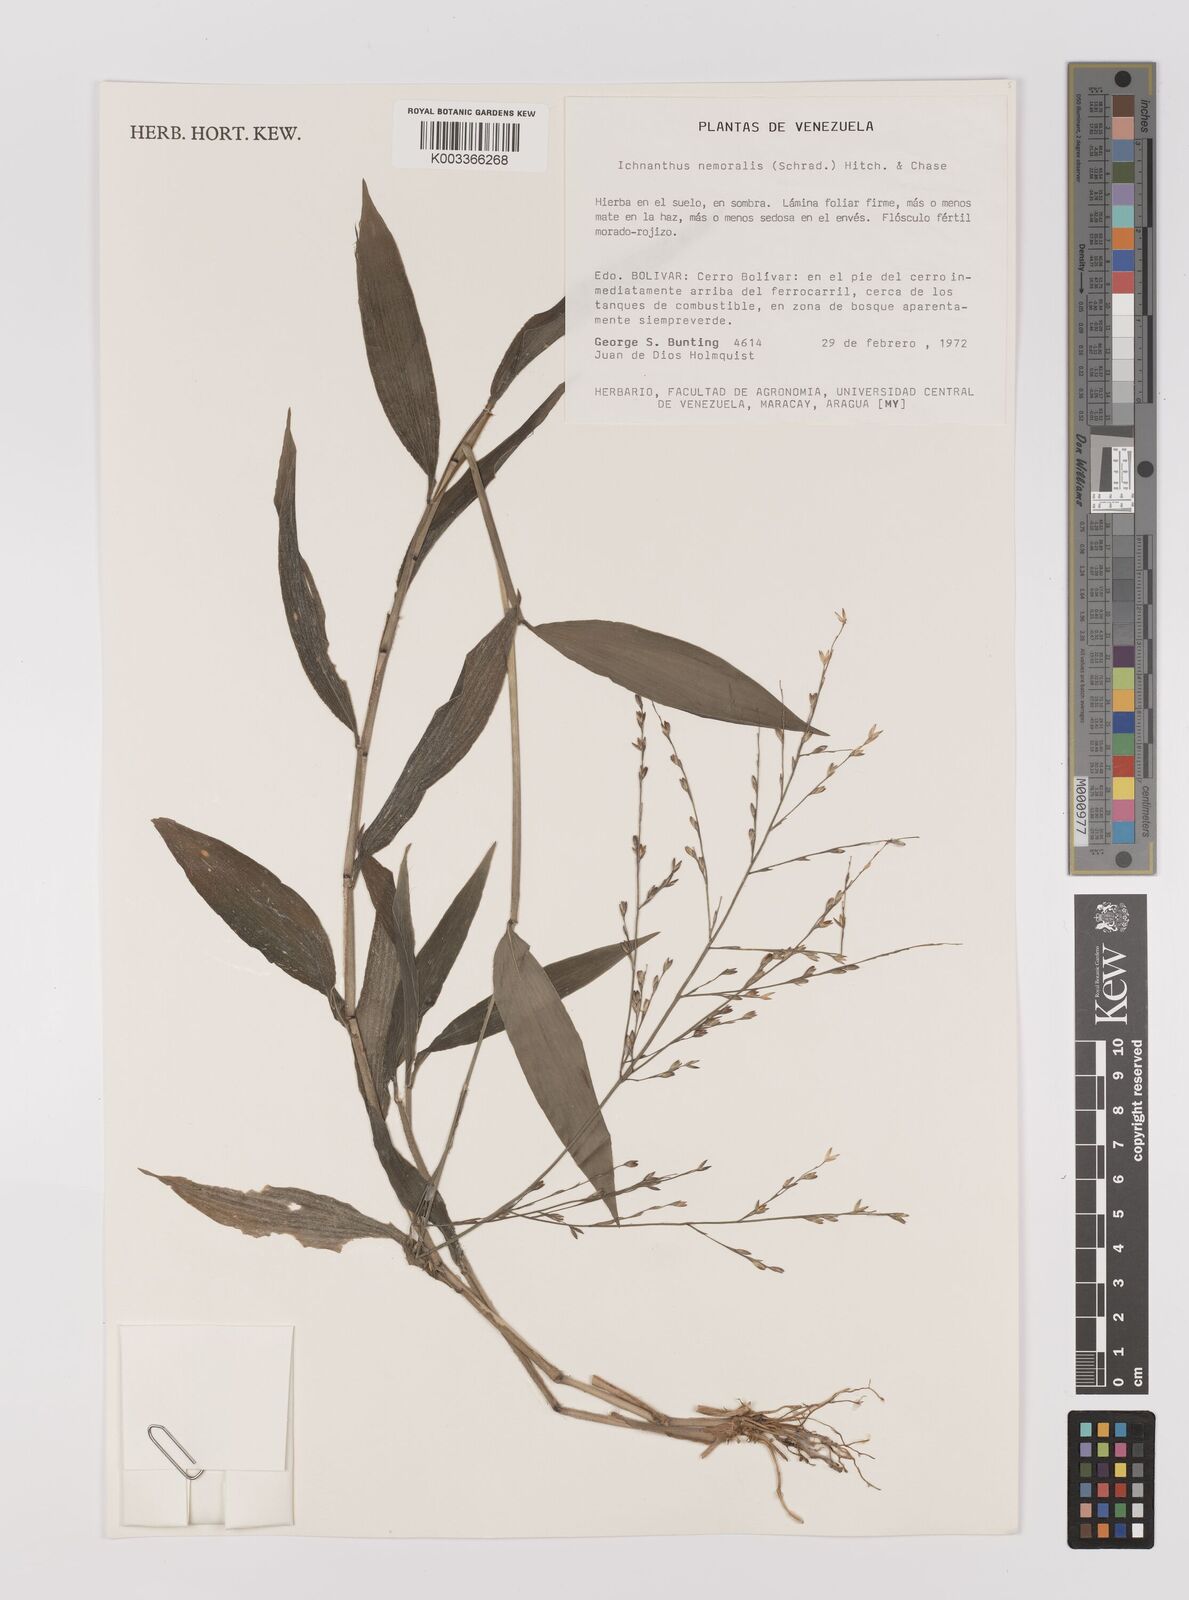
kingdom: Plantae
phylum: Tracheophyta
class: Liliopsida
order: Poales
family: Poaceae
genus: Ichnanthus
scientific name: Ichnanthus nemoralis
